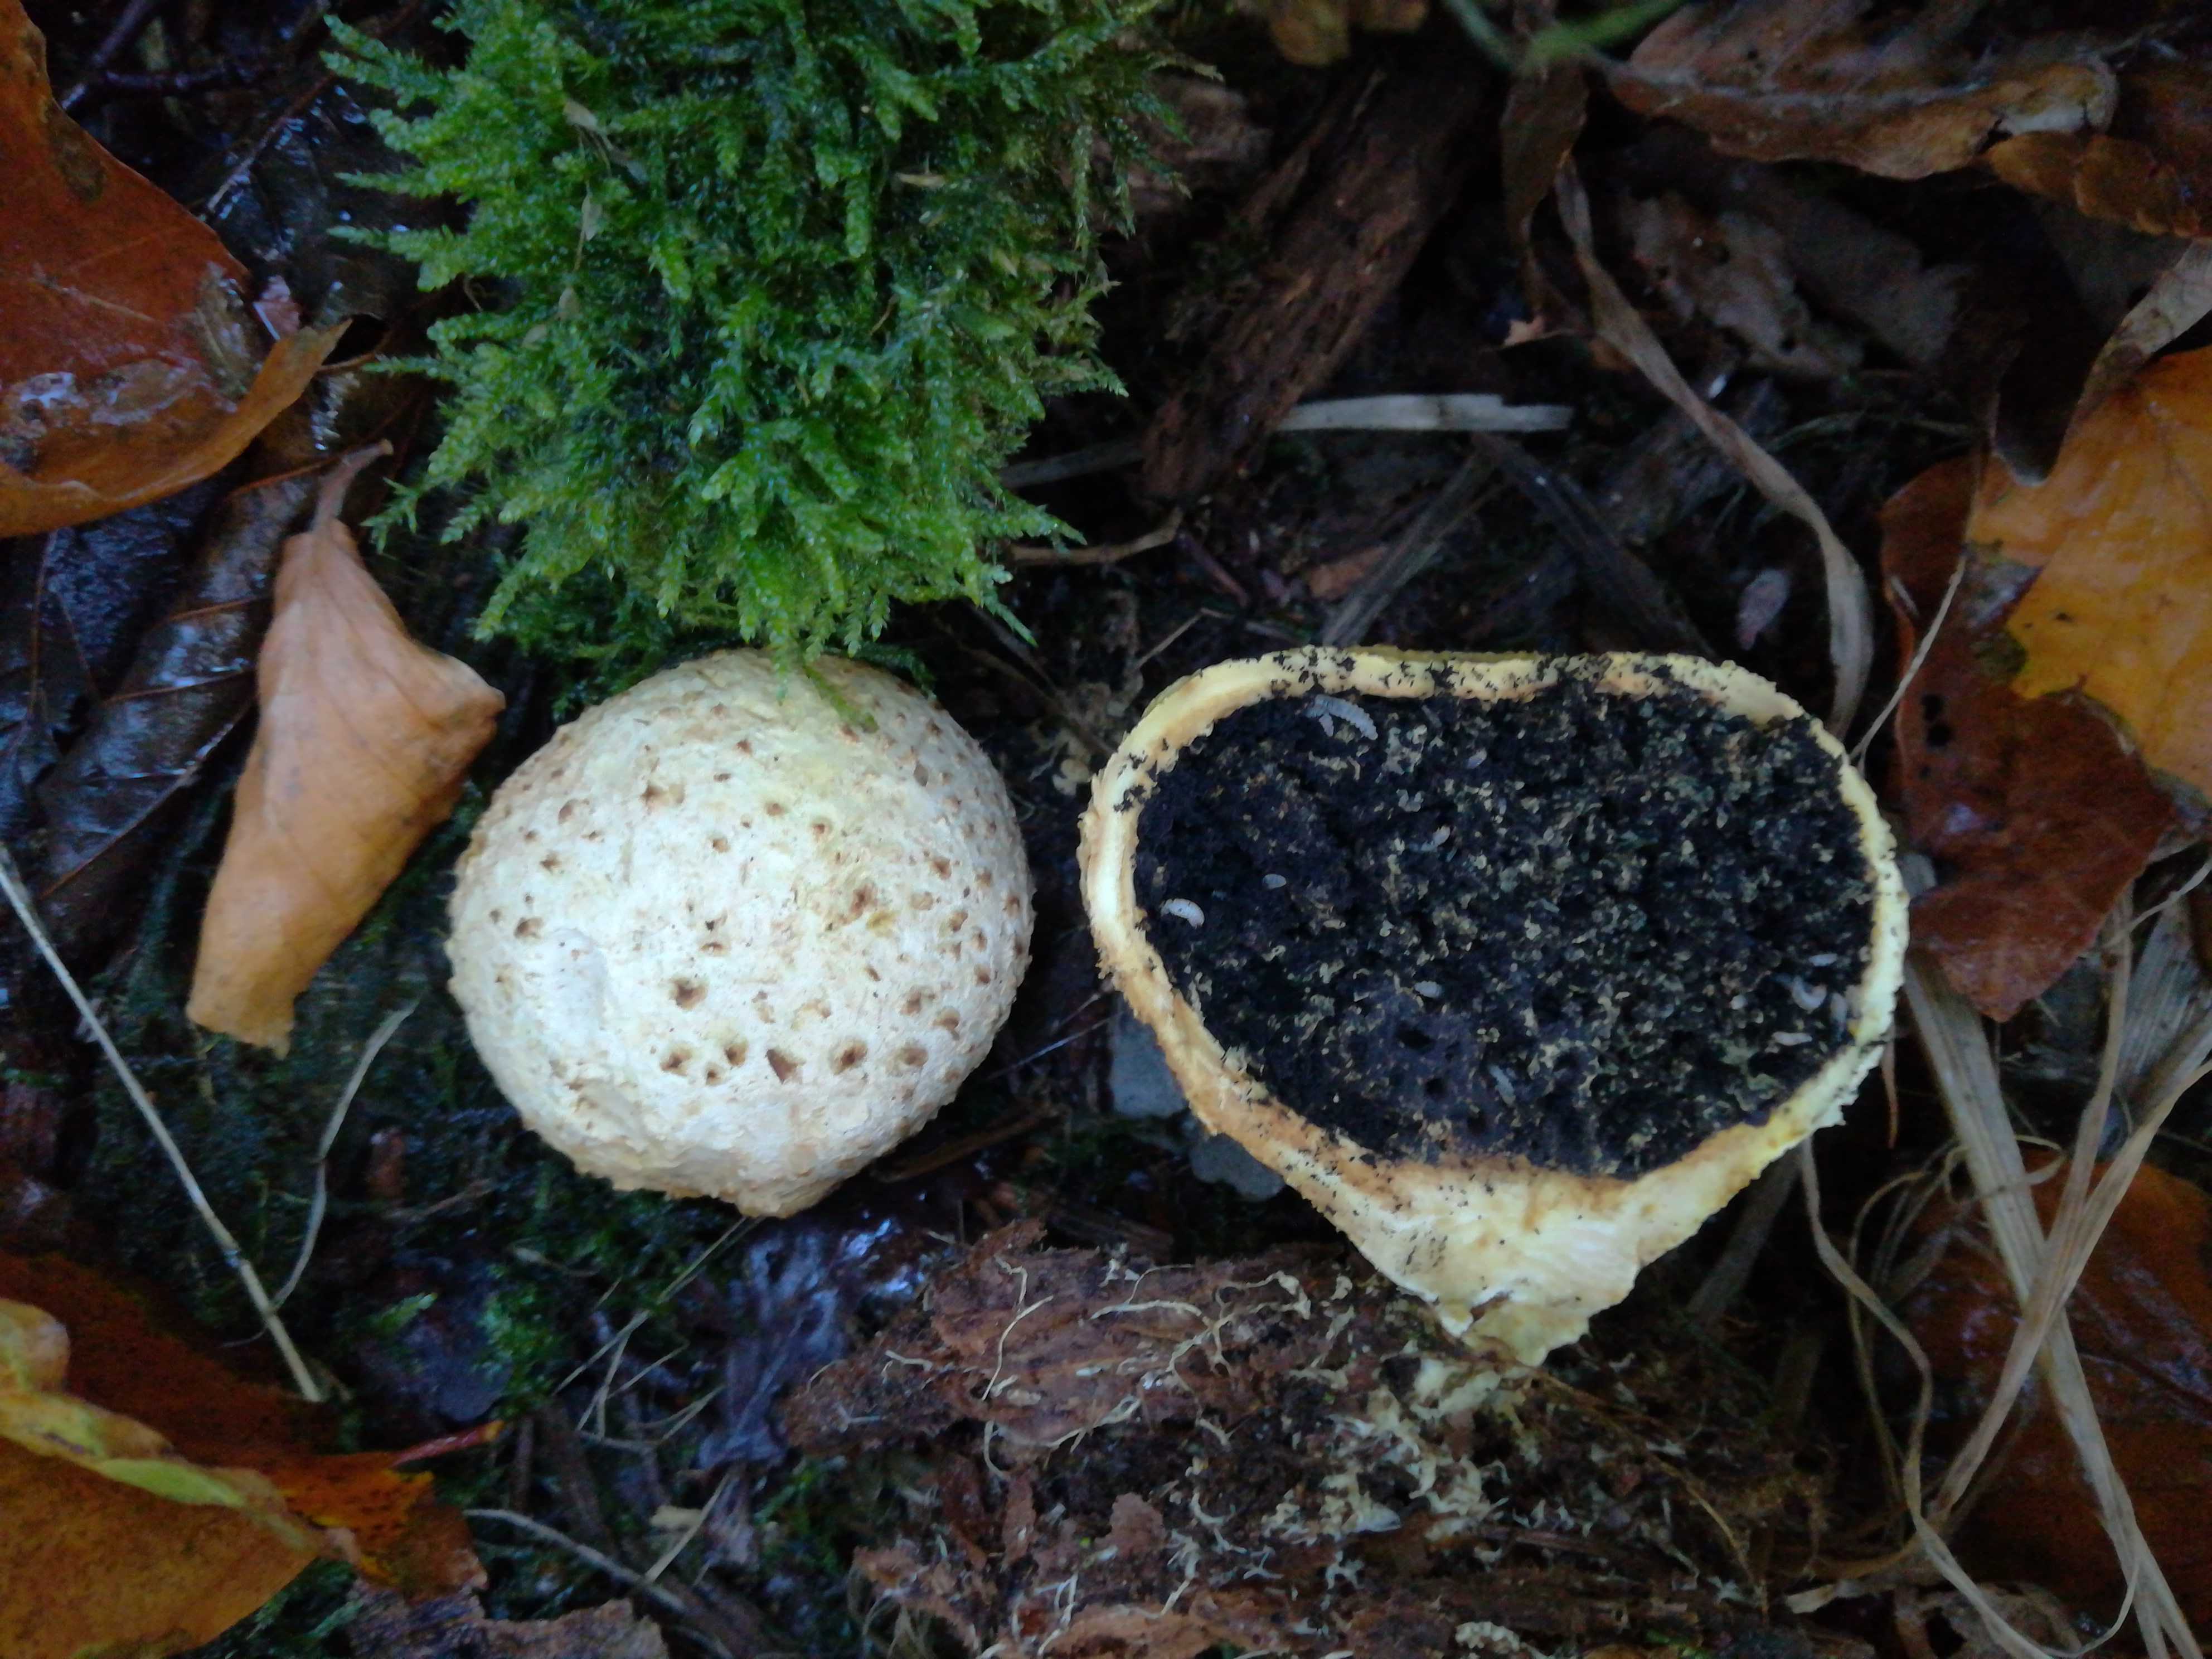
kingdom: Fungi
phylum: Basidiomycota
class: Agaricomycetes
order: Boletales
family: Sclerodermataceae
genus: Scleroderma
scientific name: Scleroderma citrinum
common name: almindelig bruskbold
